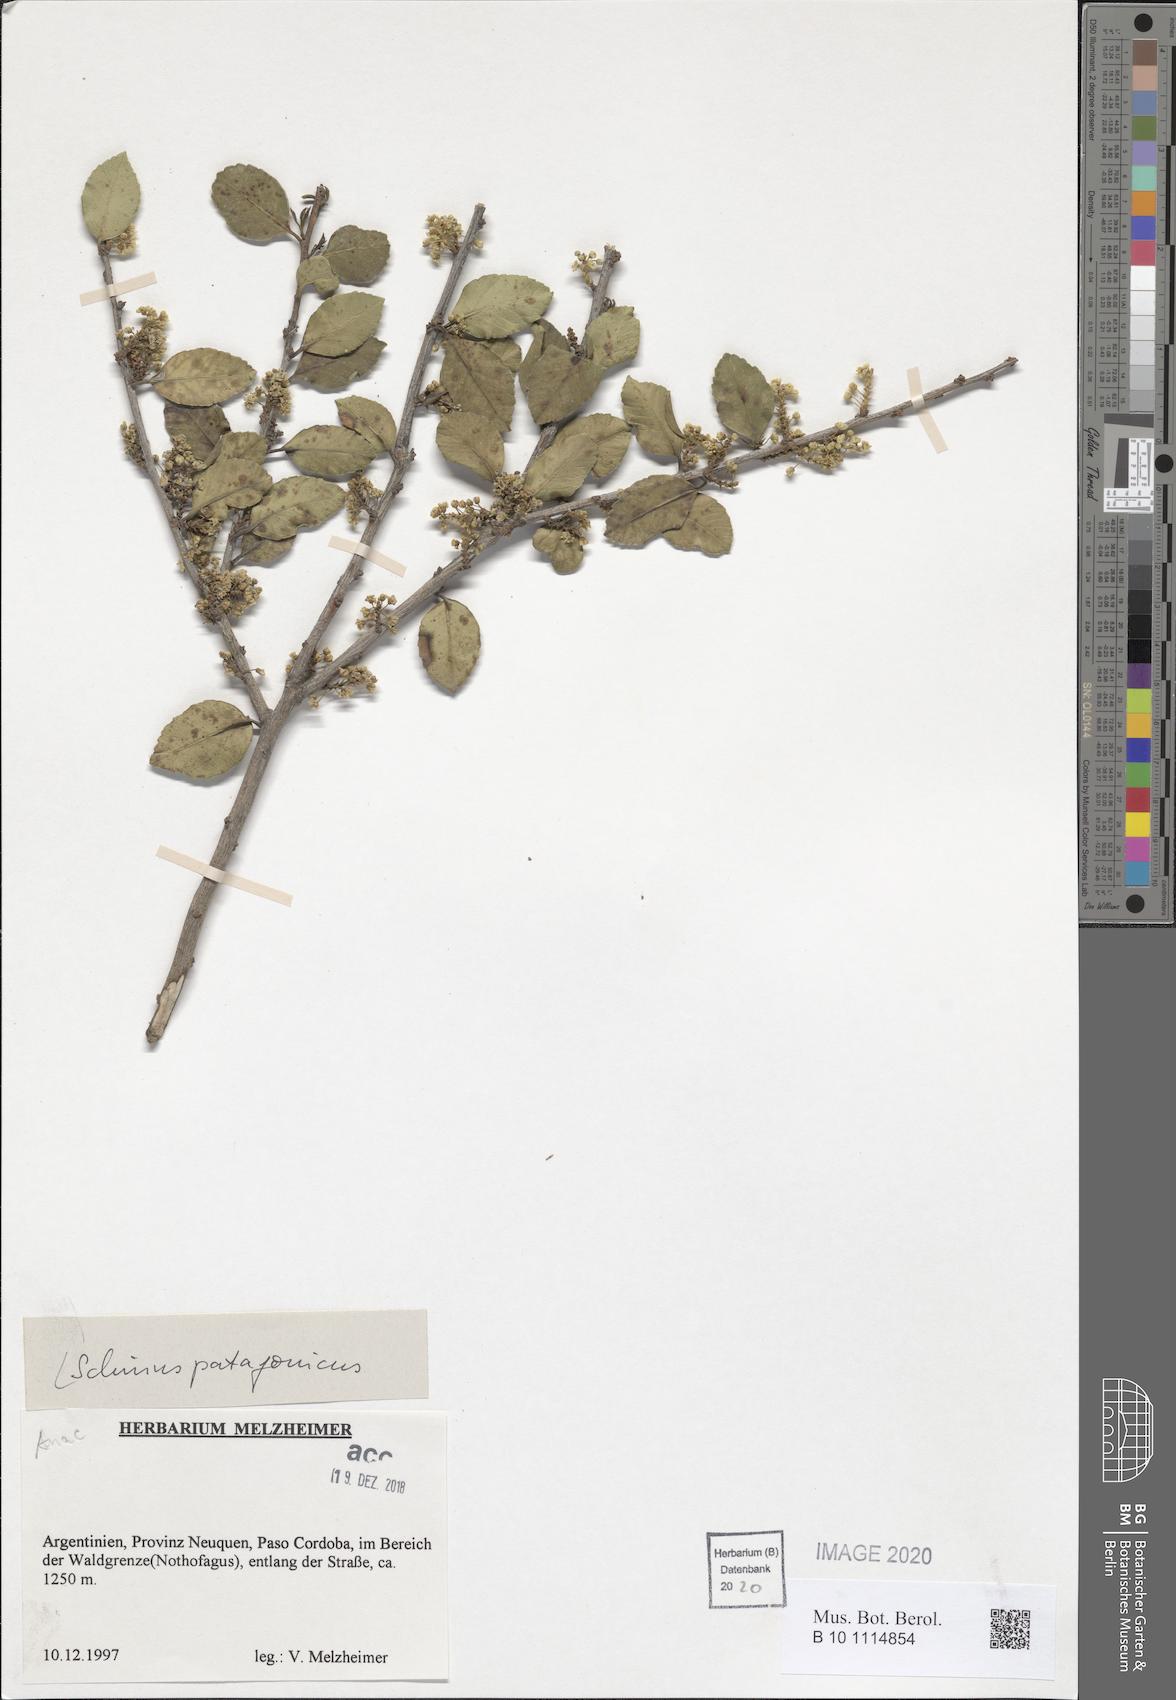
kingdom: Plantae
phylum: Tracheophyta
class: Magnoliopsida
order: Sapindales
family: Anacardiaceae
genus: Schinus
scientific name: Schinus patagonicus
